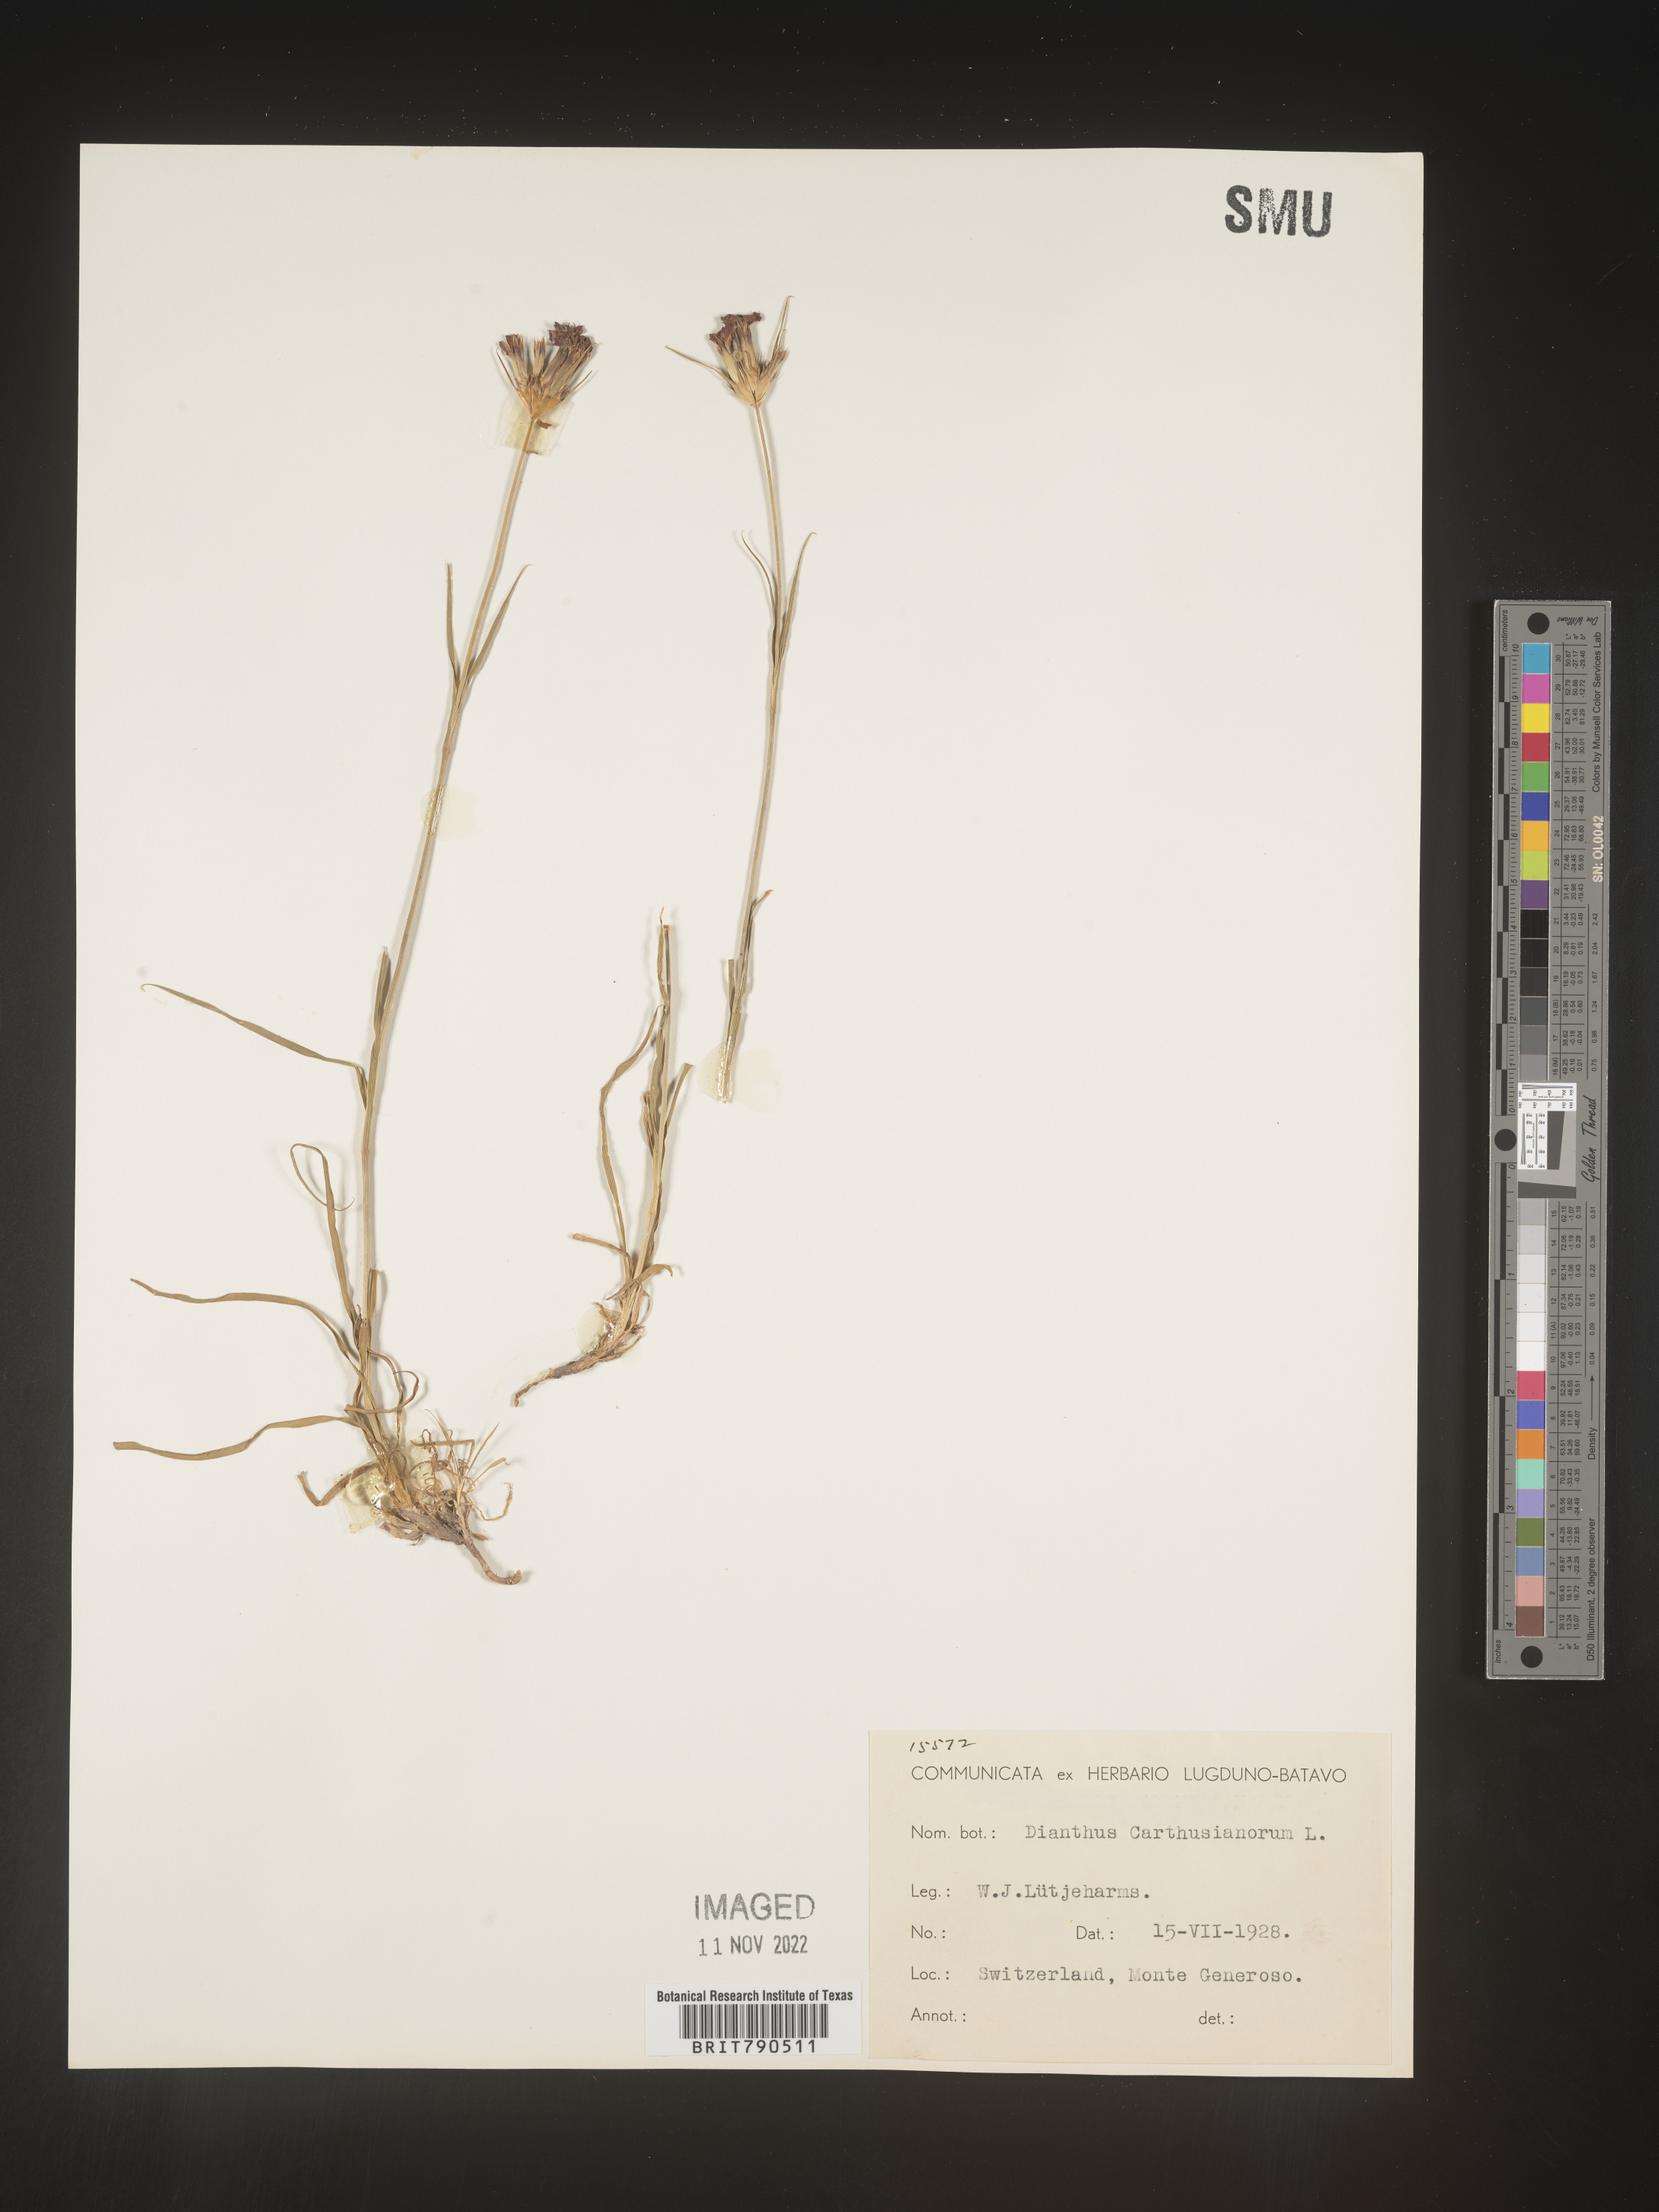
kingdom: Plantae
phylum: Tracheophyta
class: Magnoliopsida
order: Caryophyllales
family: Caryophyllaceae
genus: Dianthus
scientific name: Dianthus carthusianorum
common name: Carthusian pink
